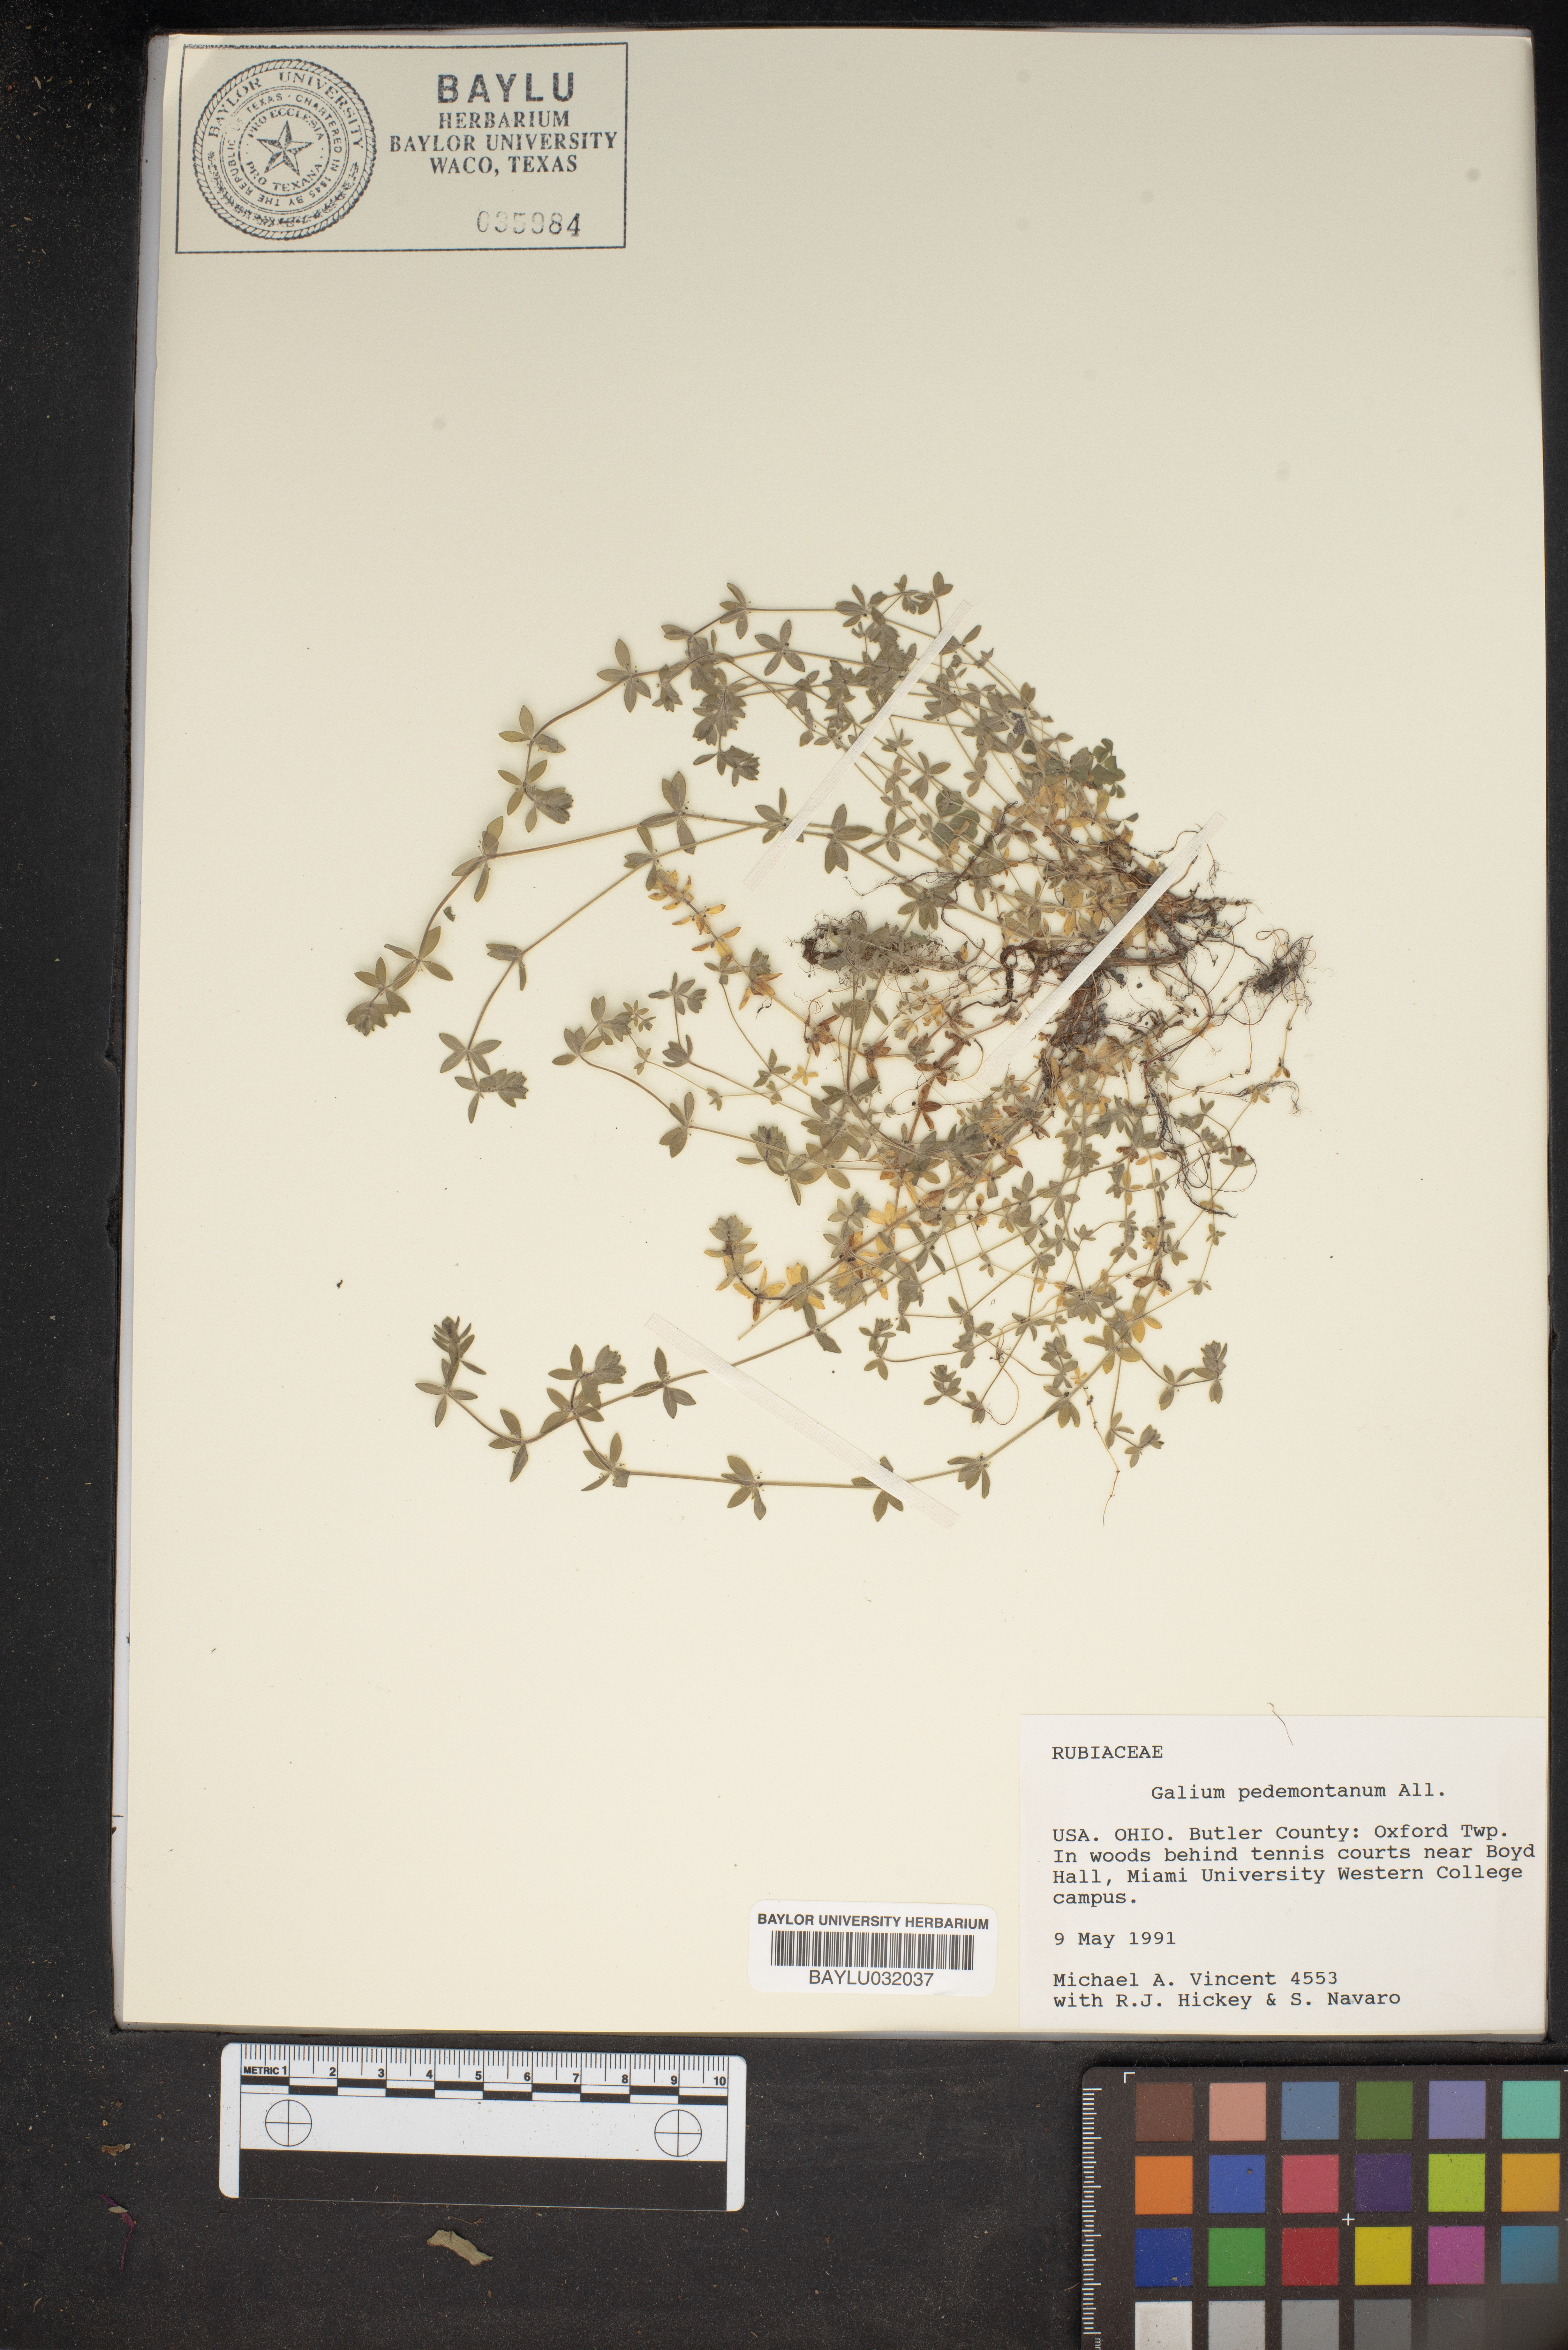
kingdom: Plantae
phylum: Tracheophyta
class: Magnoliopsida
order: Gentianales
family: Rubiaceae
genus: Cruciata
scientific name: Cruciata pedemontana
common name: Piedmont bedstraw
